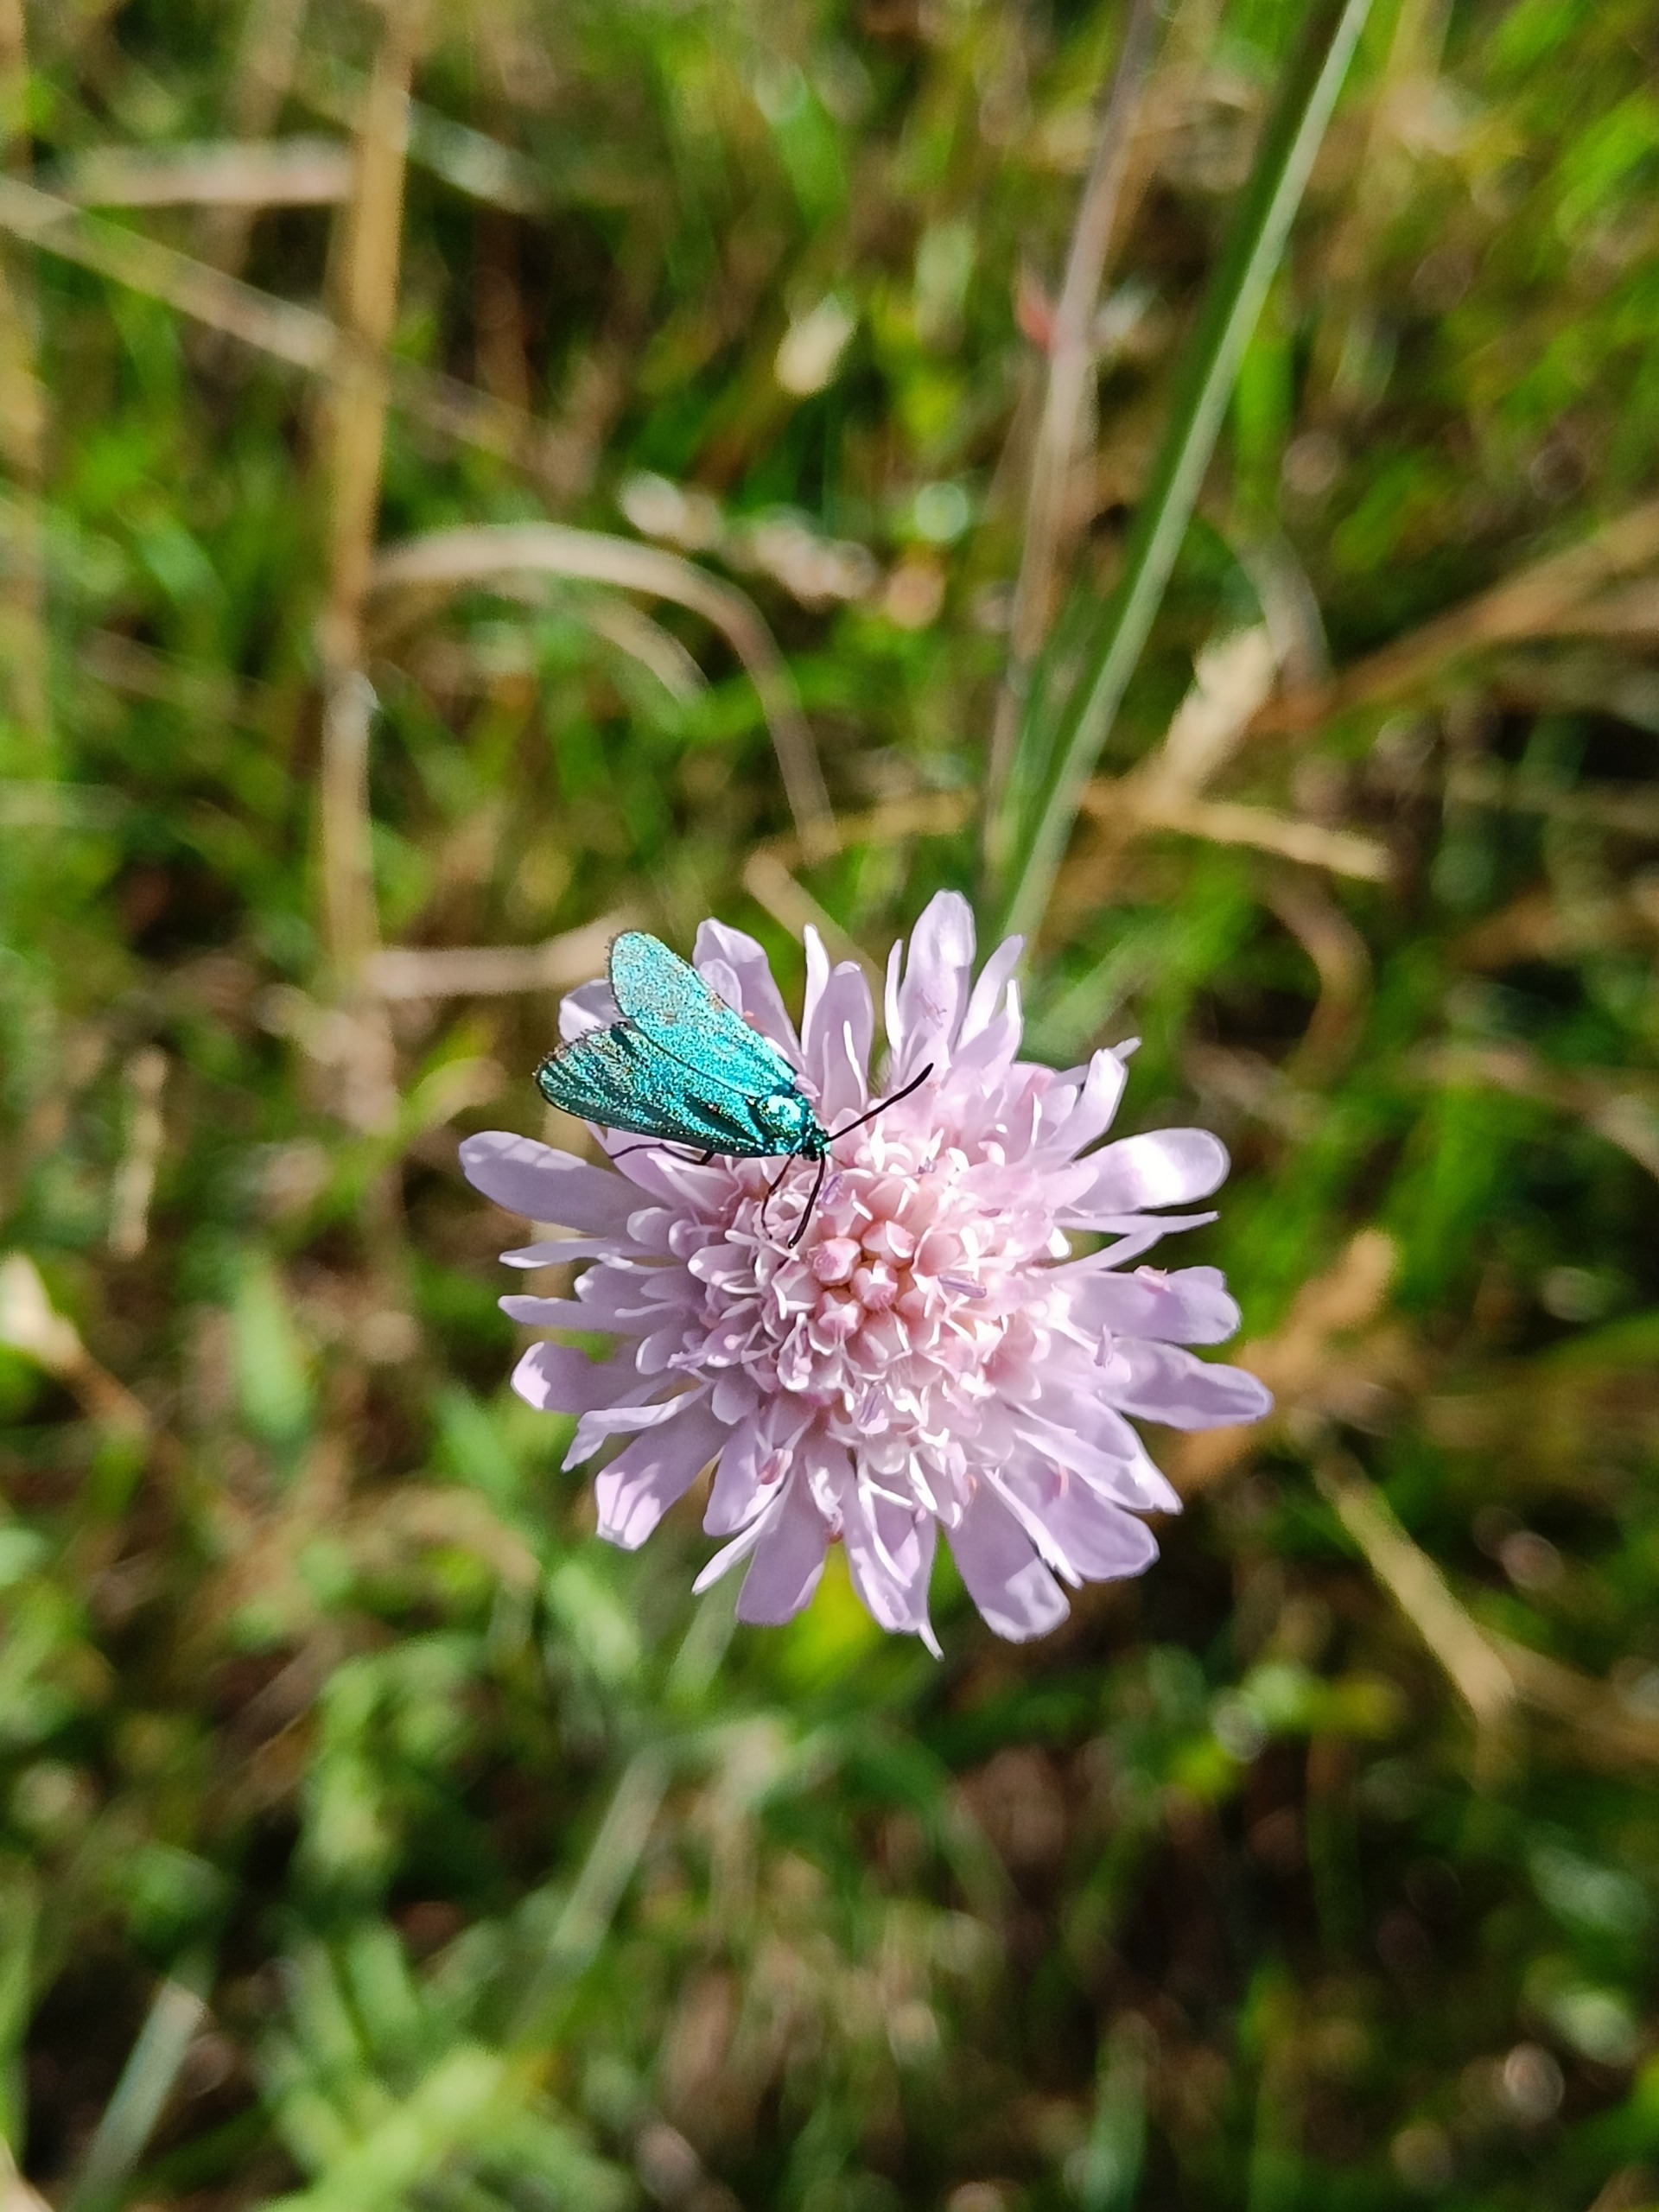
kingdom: Animalia
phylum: Arthropoda
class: Insecta
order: Lepidoptera
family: Zygaenidae
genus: Adscita
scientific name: Adscita statices
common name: Metalvinge
